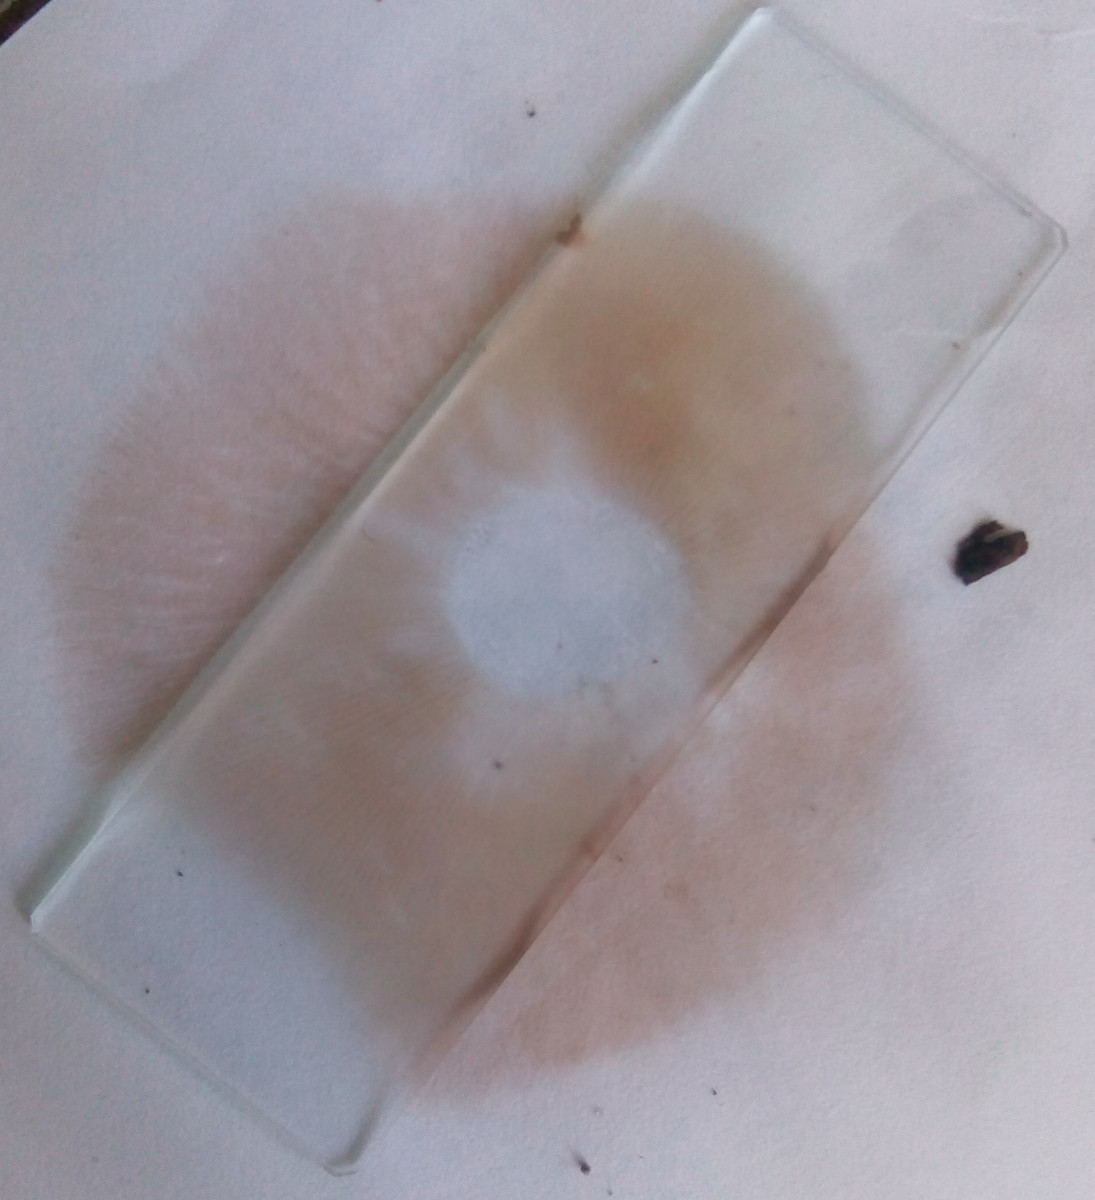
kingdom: Fungi
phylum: Basidiomycota
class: Agaricomycetes
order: Agaricales
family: Entolomataceae
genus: Clitopilus
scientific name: Clitopilus geminus
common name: kødfarvet troldhat
